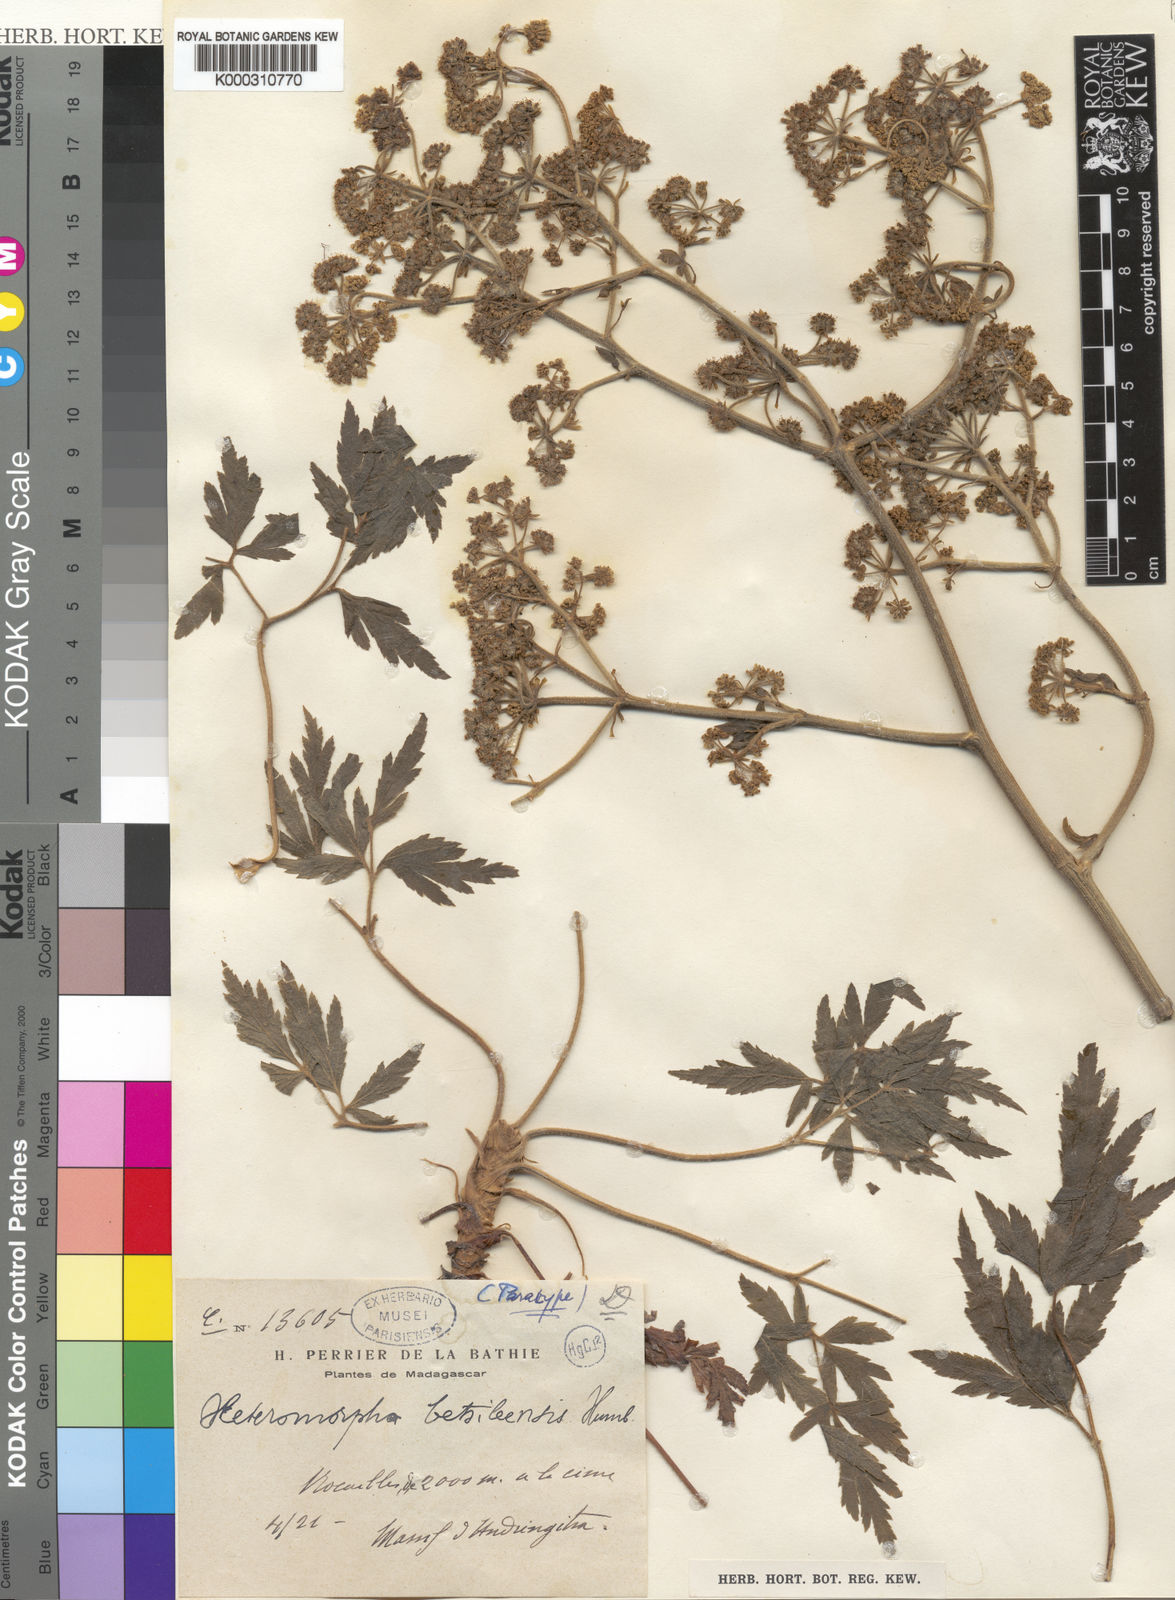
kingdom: Plantae
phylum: Tracheophyta
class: Magnoliopsida
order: Apiales
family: Apiaceae
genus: Cannaboides
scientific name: Cannaboides betsileensis
